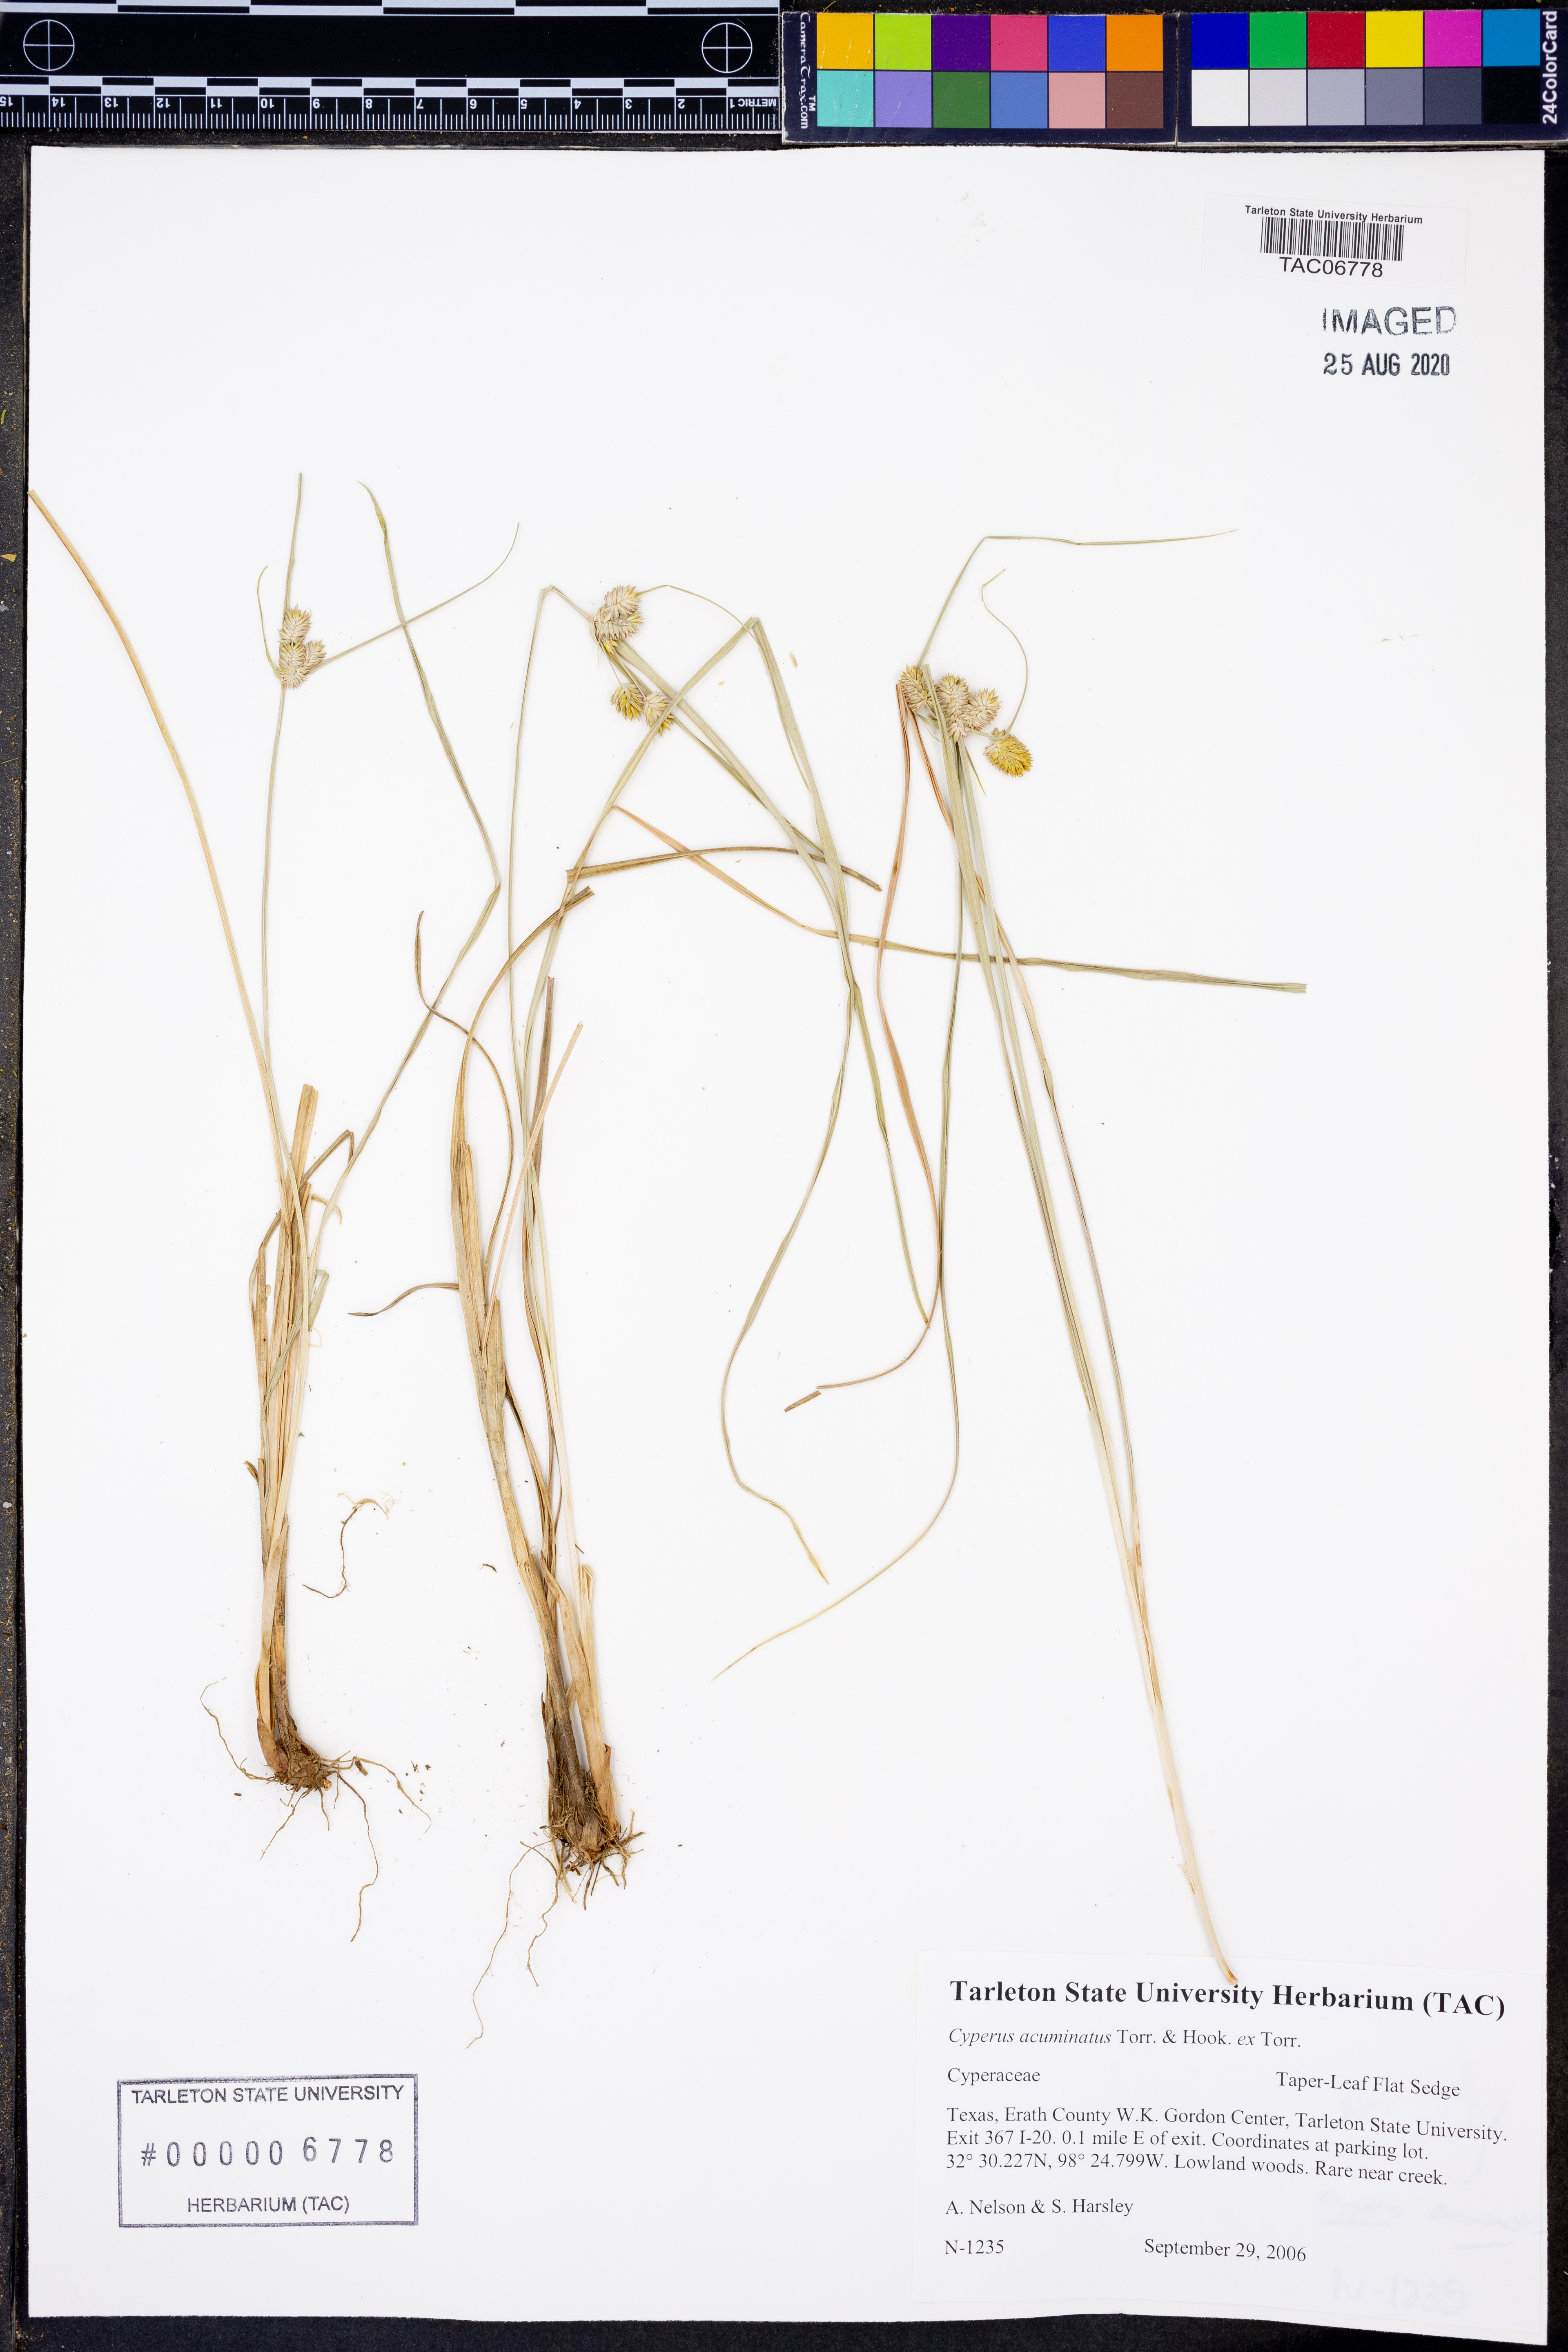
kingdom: Plantae
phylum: Tracheophyta
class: Liliopsida
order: Poales
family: Cyperaceae
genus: Cyperus
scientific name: Cyperus acuminatus
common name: Short-pointed cyperus
